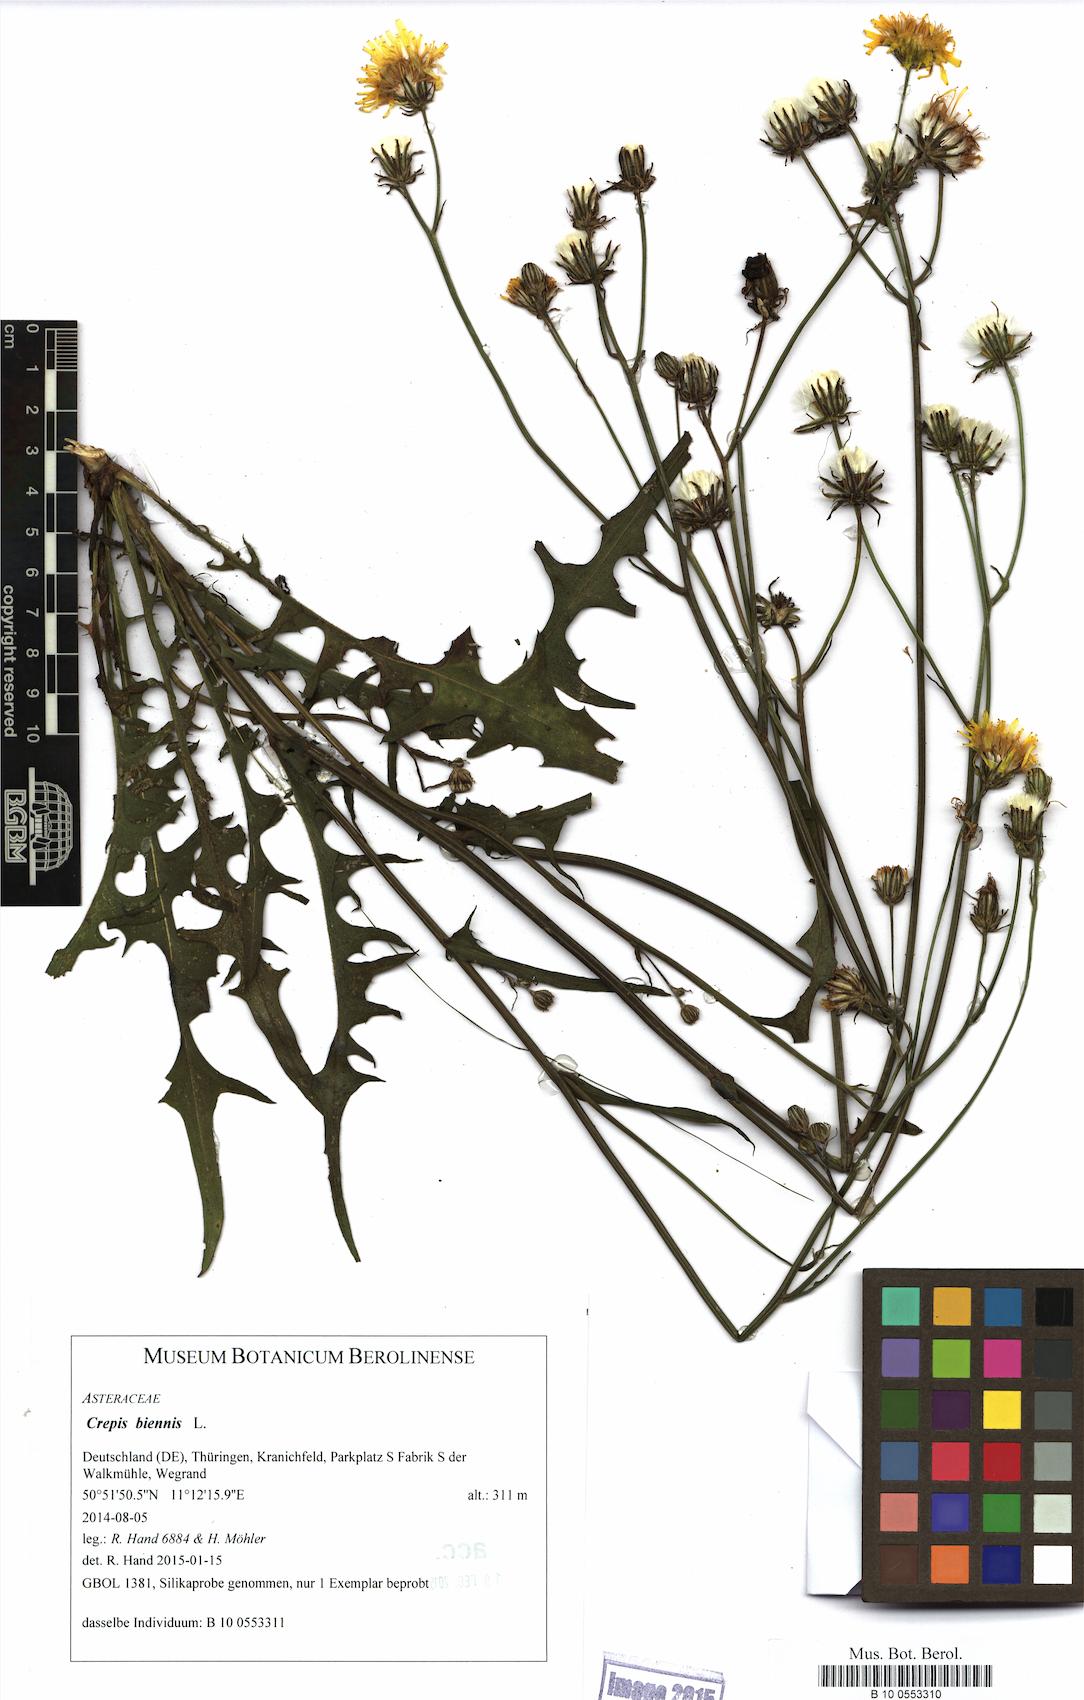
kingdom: Plantae
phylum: Tracheophyta
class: Magnoliopsida
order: Asterales
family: Asteraceae
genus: Crepis
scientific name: Crepis biennis
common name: Rough hawk's-beard
